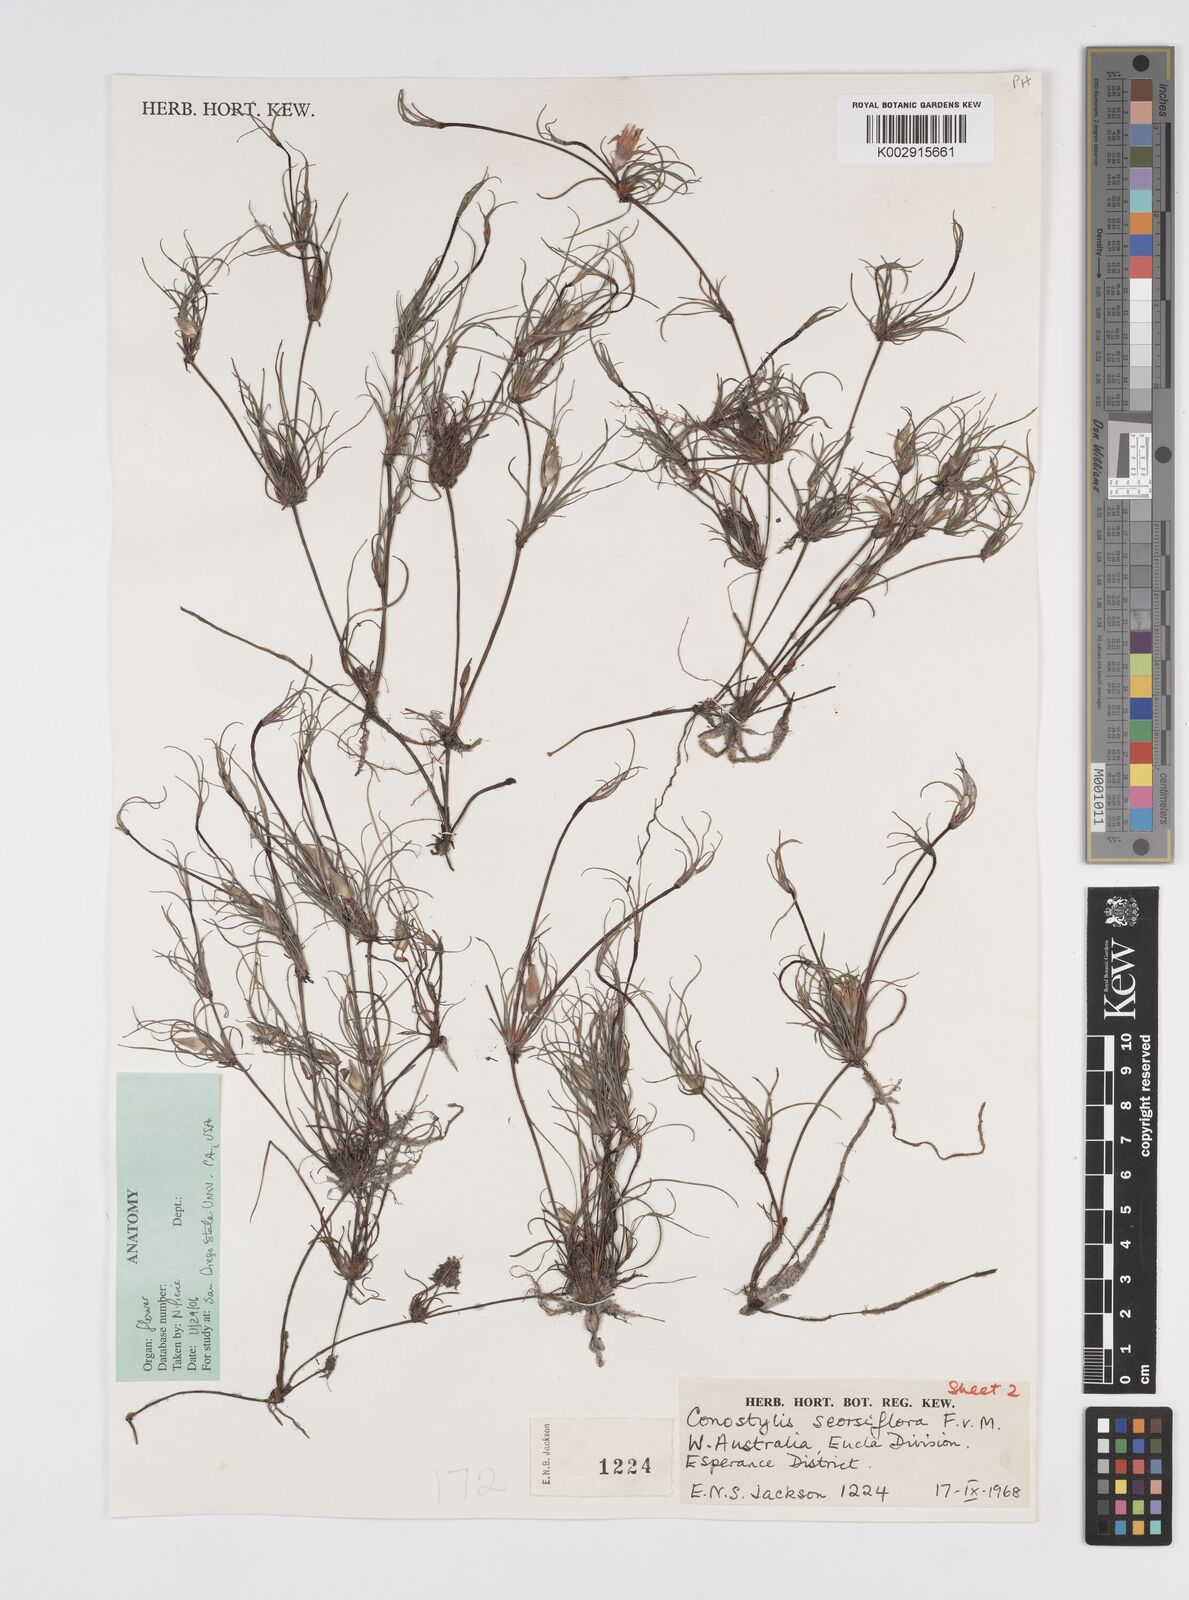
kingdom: Plantae
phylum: Tracheophyta
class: Liliopsida
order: Commelinales
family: Haemodoraceae
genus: Conostylis
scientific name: Conostylis seorsiflora
